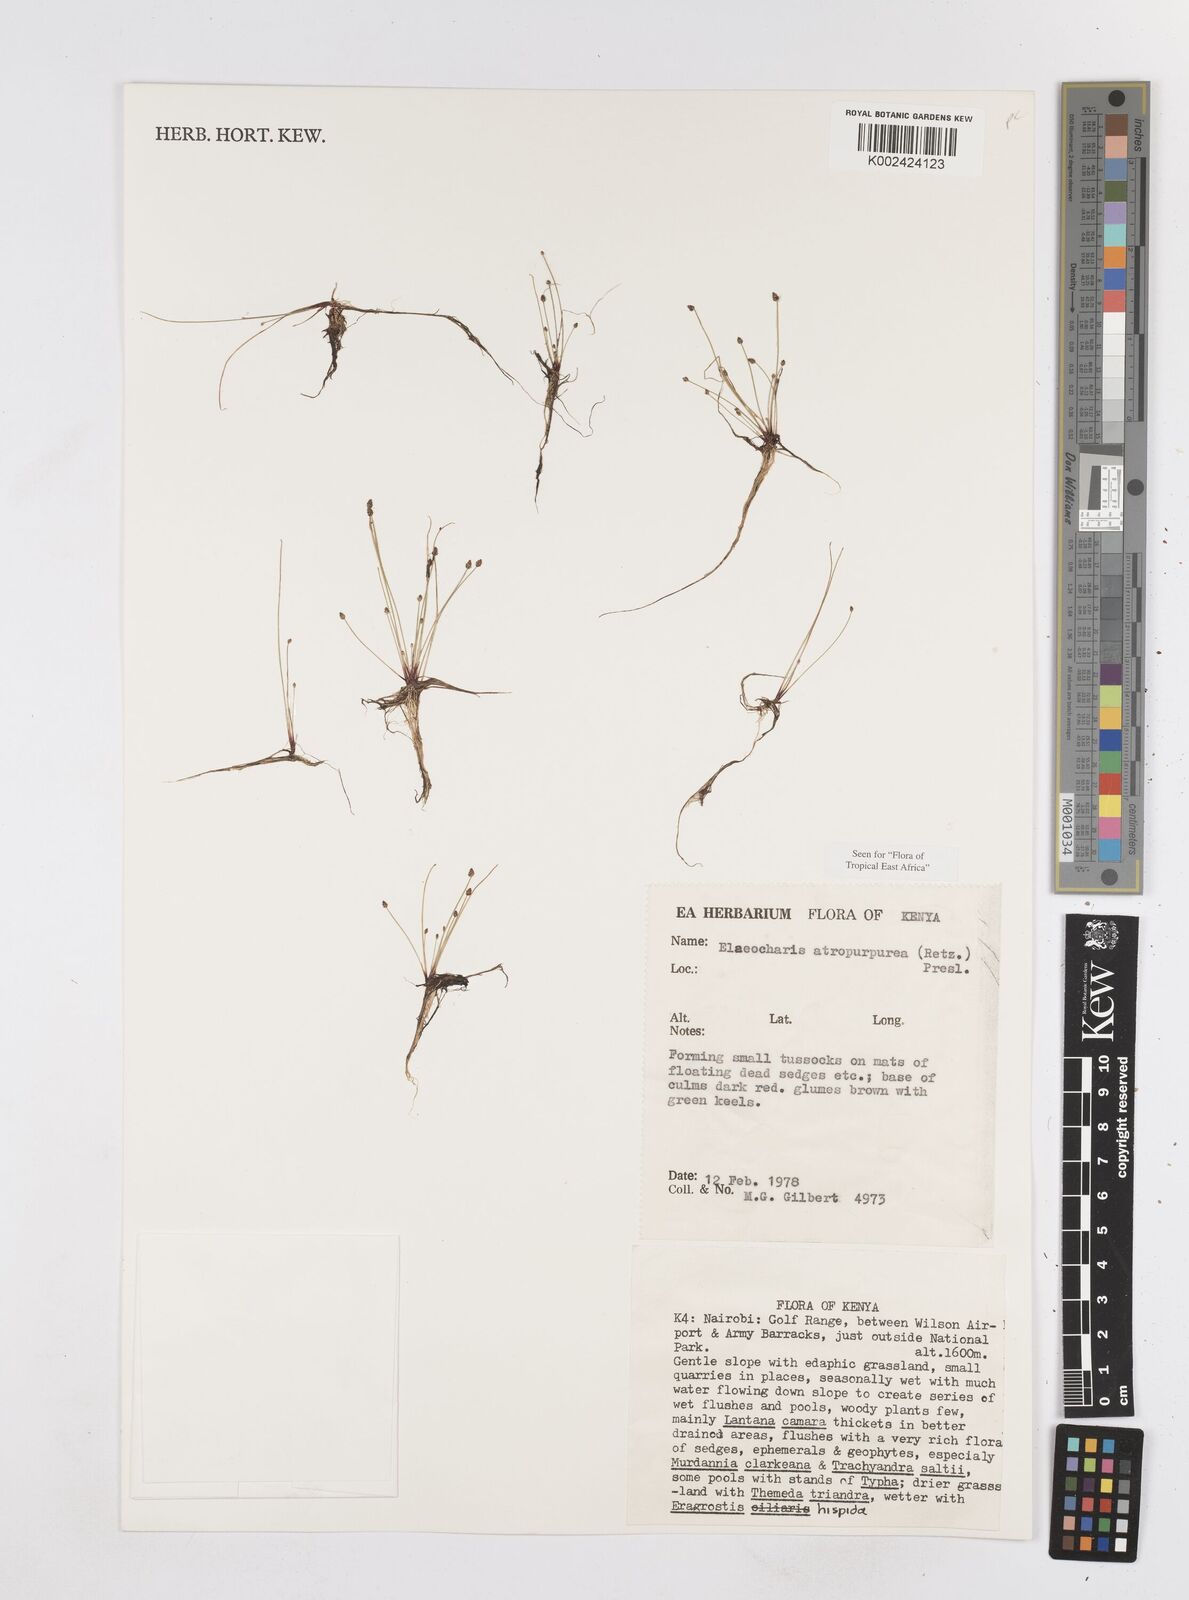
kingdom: Plantae
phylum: Tracheophyta
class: Liliopsida
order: Poales
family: Cyperaceae
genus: Eleocharis
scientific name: Eleocharis atropurpurea
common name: Purple spikerush
